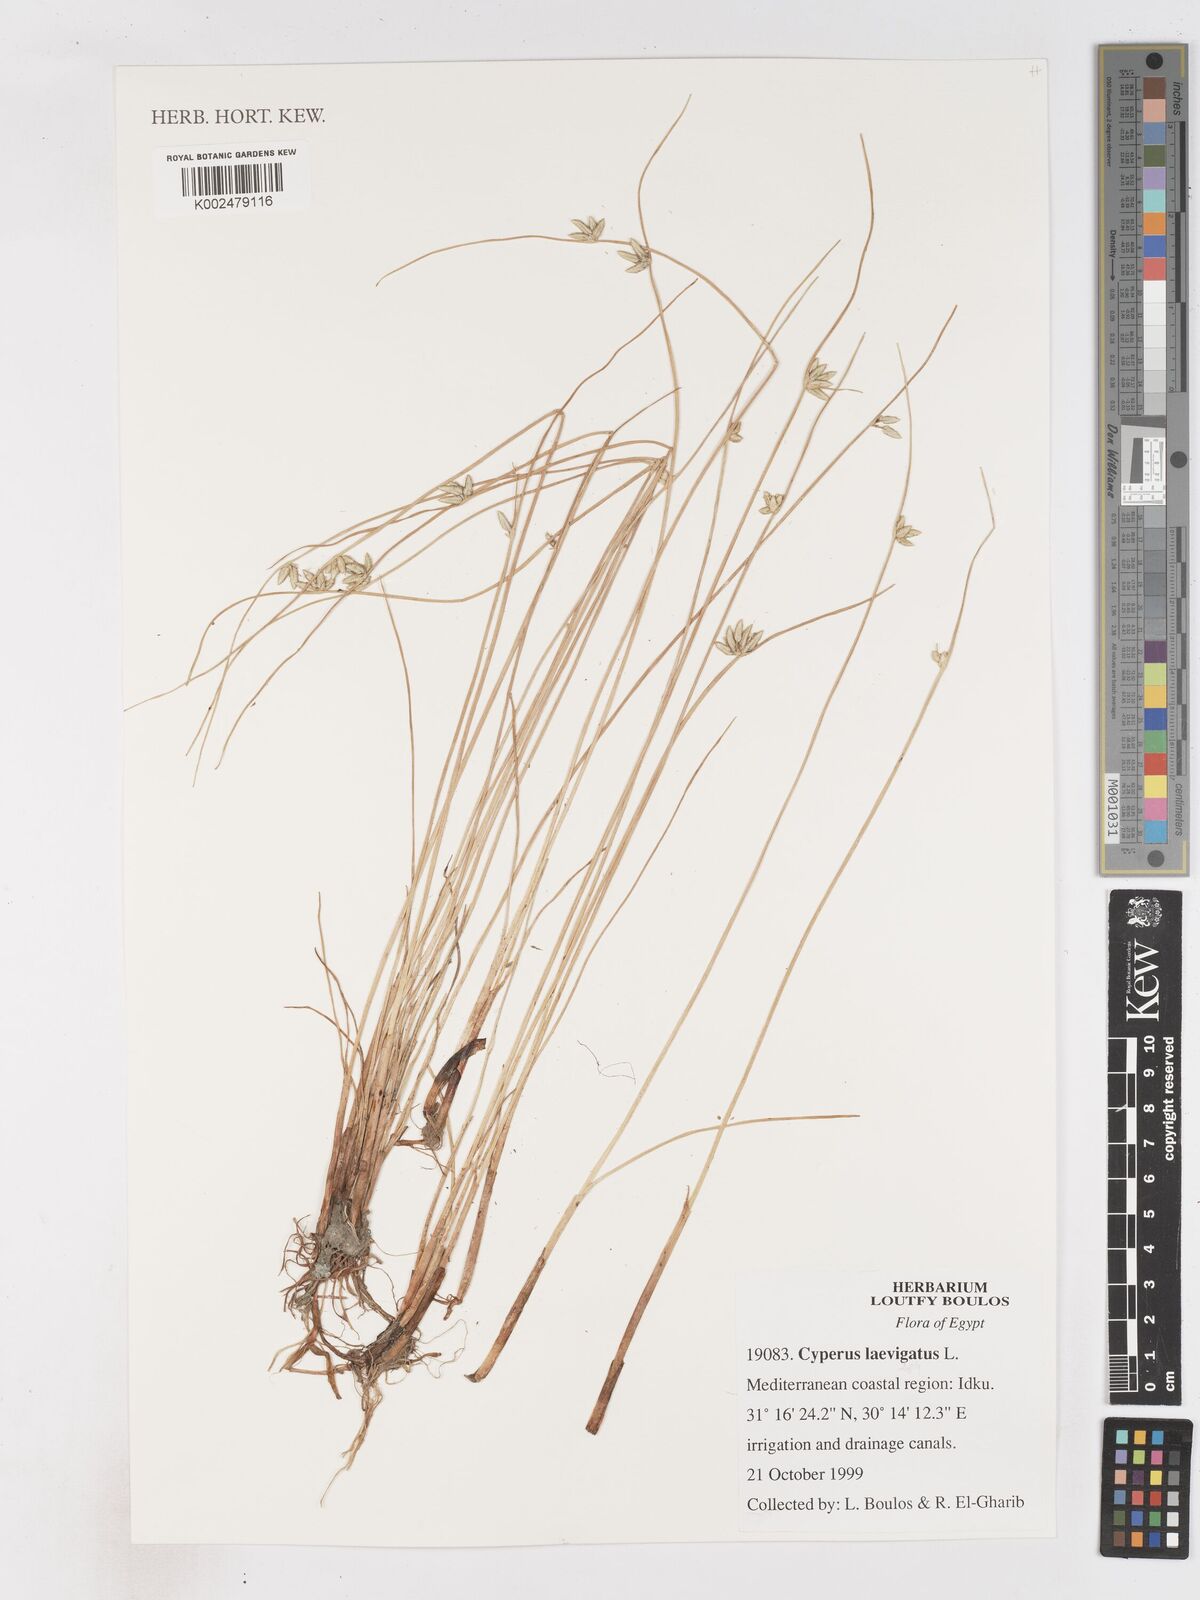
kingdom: Plantae
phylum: Tracheophyta
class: Liliopsida
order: Poales
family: Cyperaceae
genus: Cyperus
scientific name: Cyperus laevigatus
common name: Smooth flat sedge
